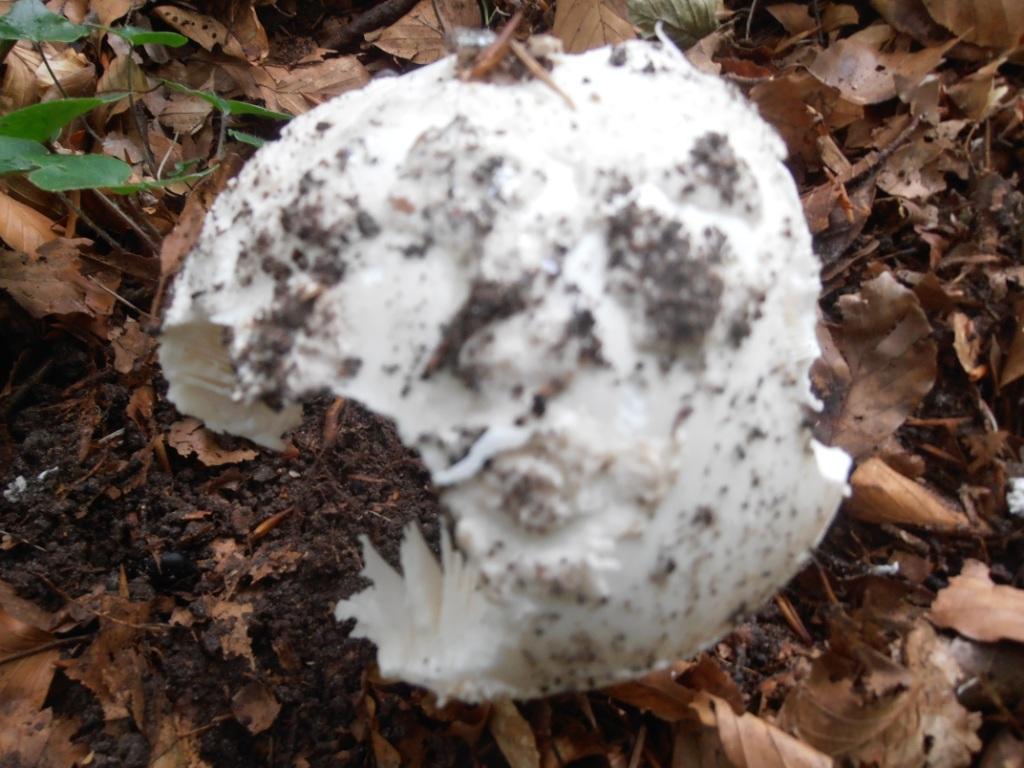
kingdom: Fungi
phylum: Basidiomycota
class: Agaricomycetes
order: Agaricales
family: Amanitaceae
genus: Amanita
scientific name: Amanita
